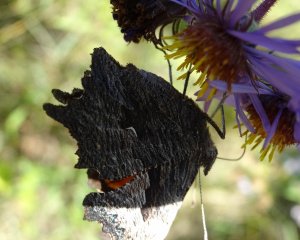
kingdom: Animalia
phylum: Arthropoda
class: Insecta
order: Lepidoptera
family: Nymphalidae
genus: Polygonia
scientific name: Polygonia progne
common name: Gray Comma
